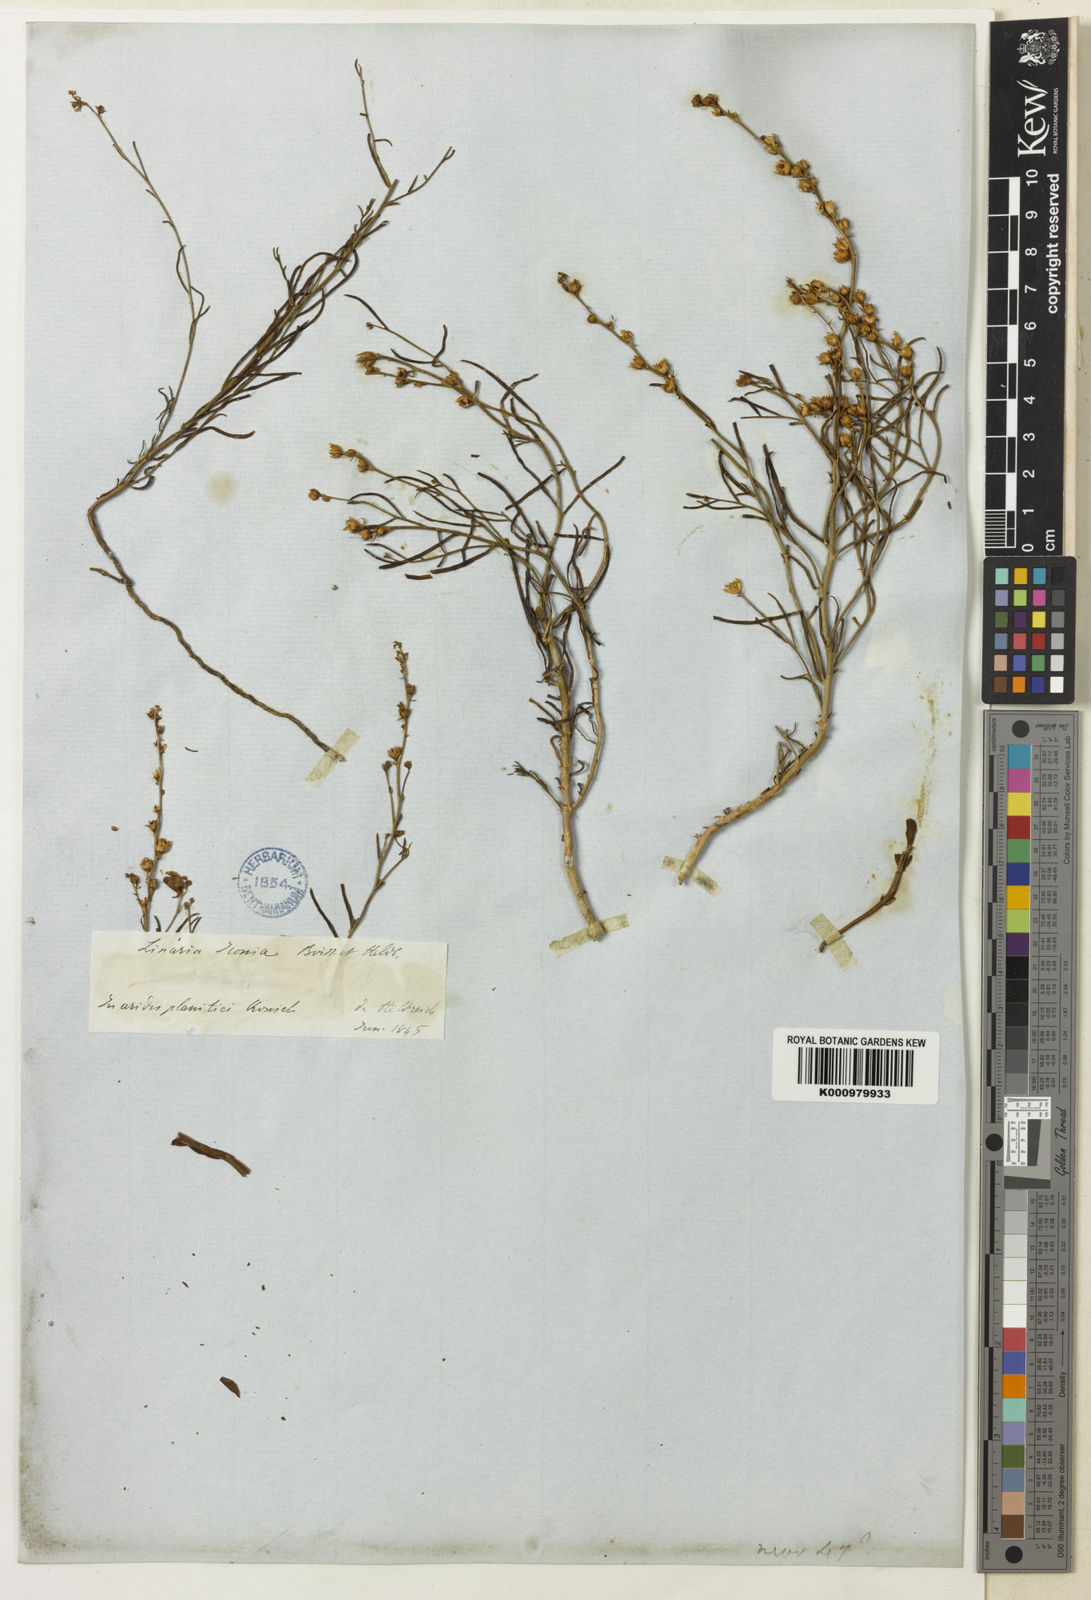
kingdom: Plantae
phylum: Tracheophyta
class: Magnoliopsida
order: Lamiales
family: Plantaginaceae
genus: Linaria
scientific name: Linaria iconia
